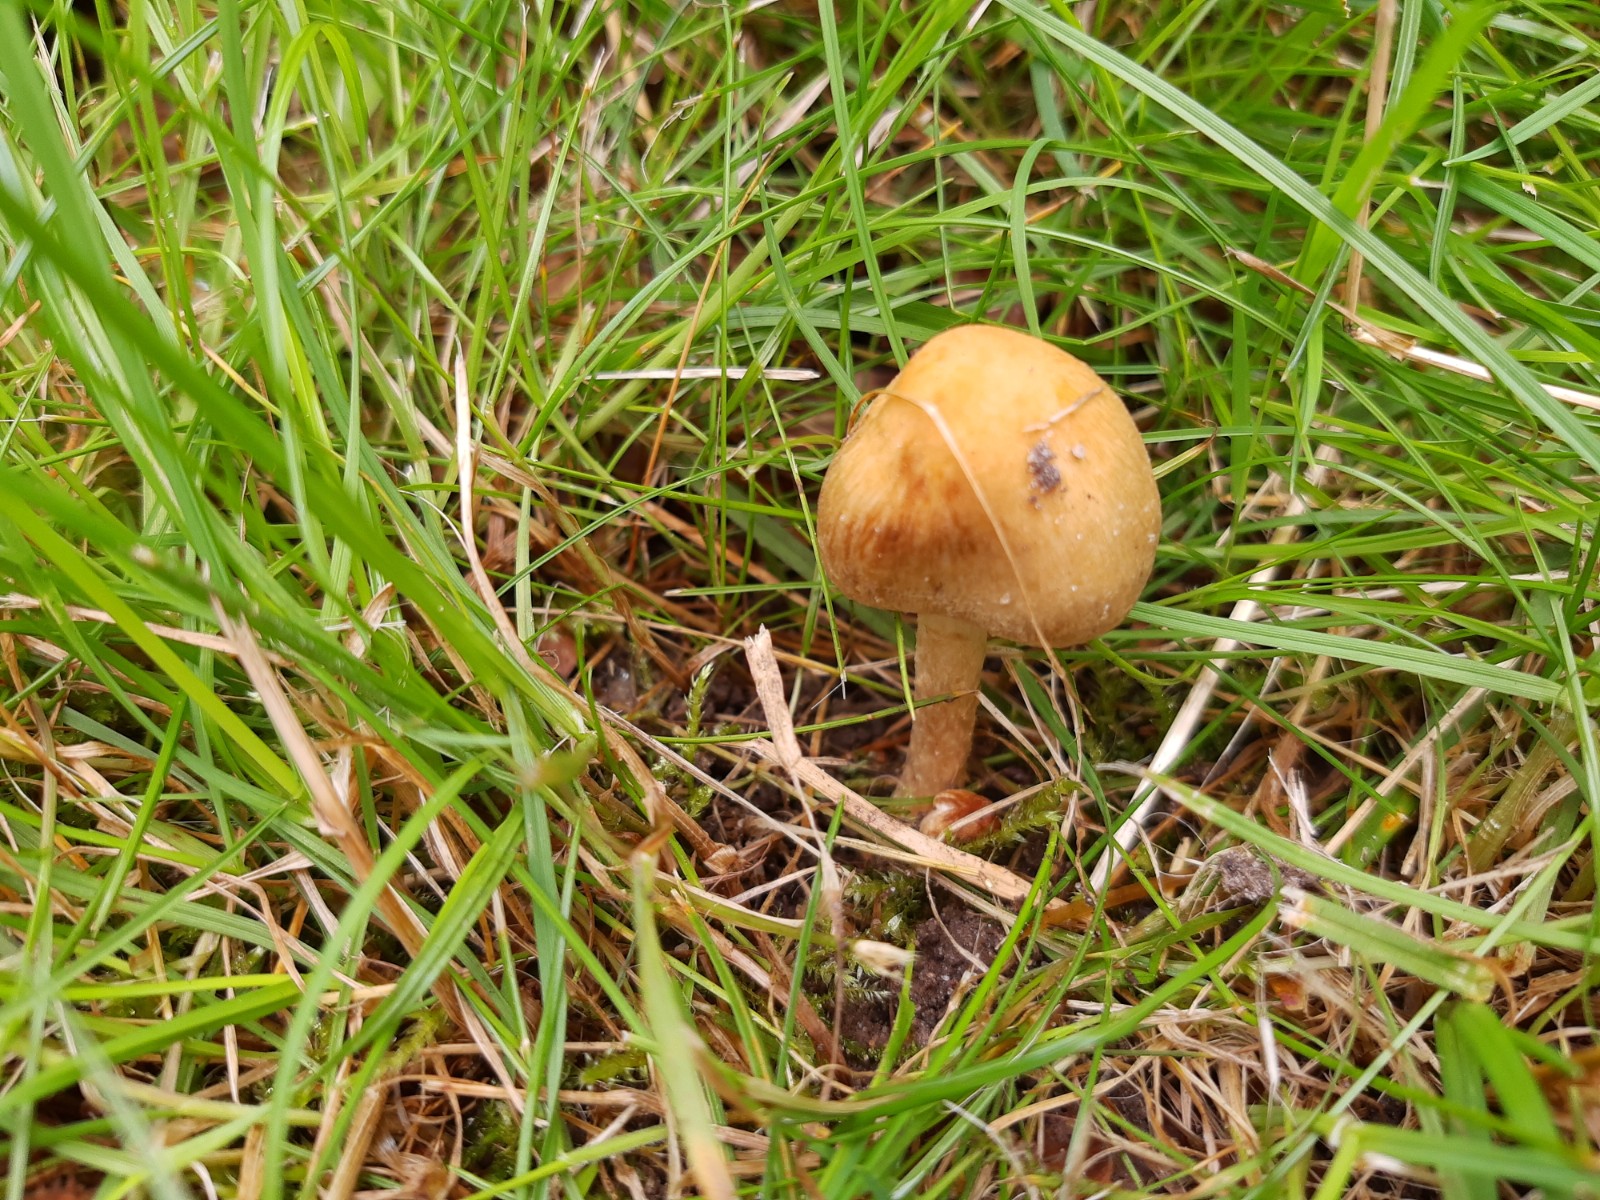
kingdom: Fungi
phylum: Basidiomycota
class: Agaricomycetes
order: Agaricales
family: Psathyrellaceae
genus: Lacrymaria
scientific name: Lacrymaria lacrymabunda
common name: grædende mørkhat
